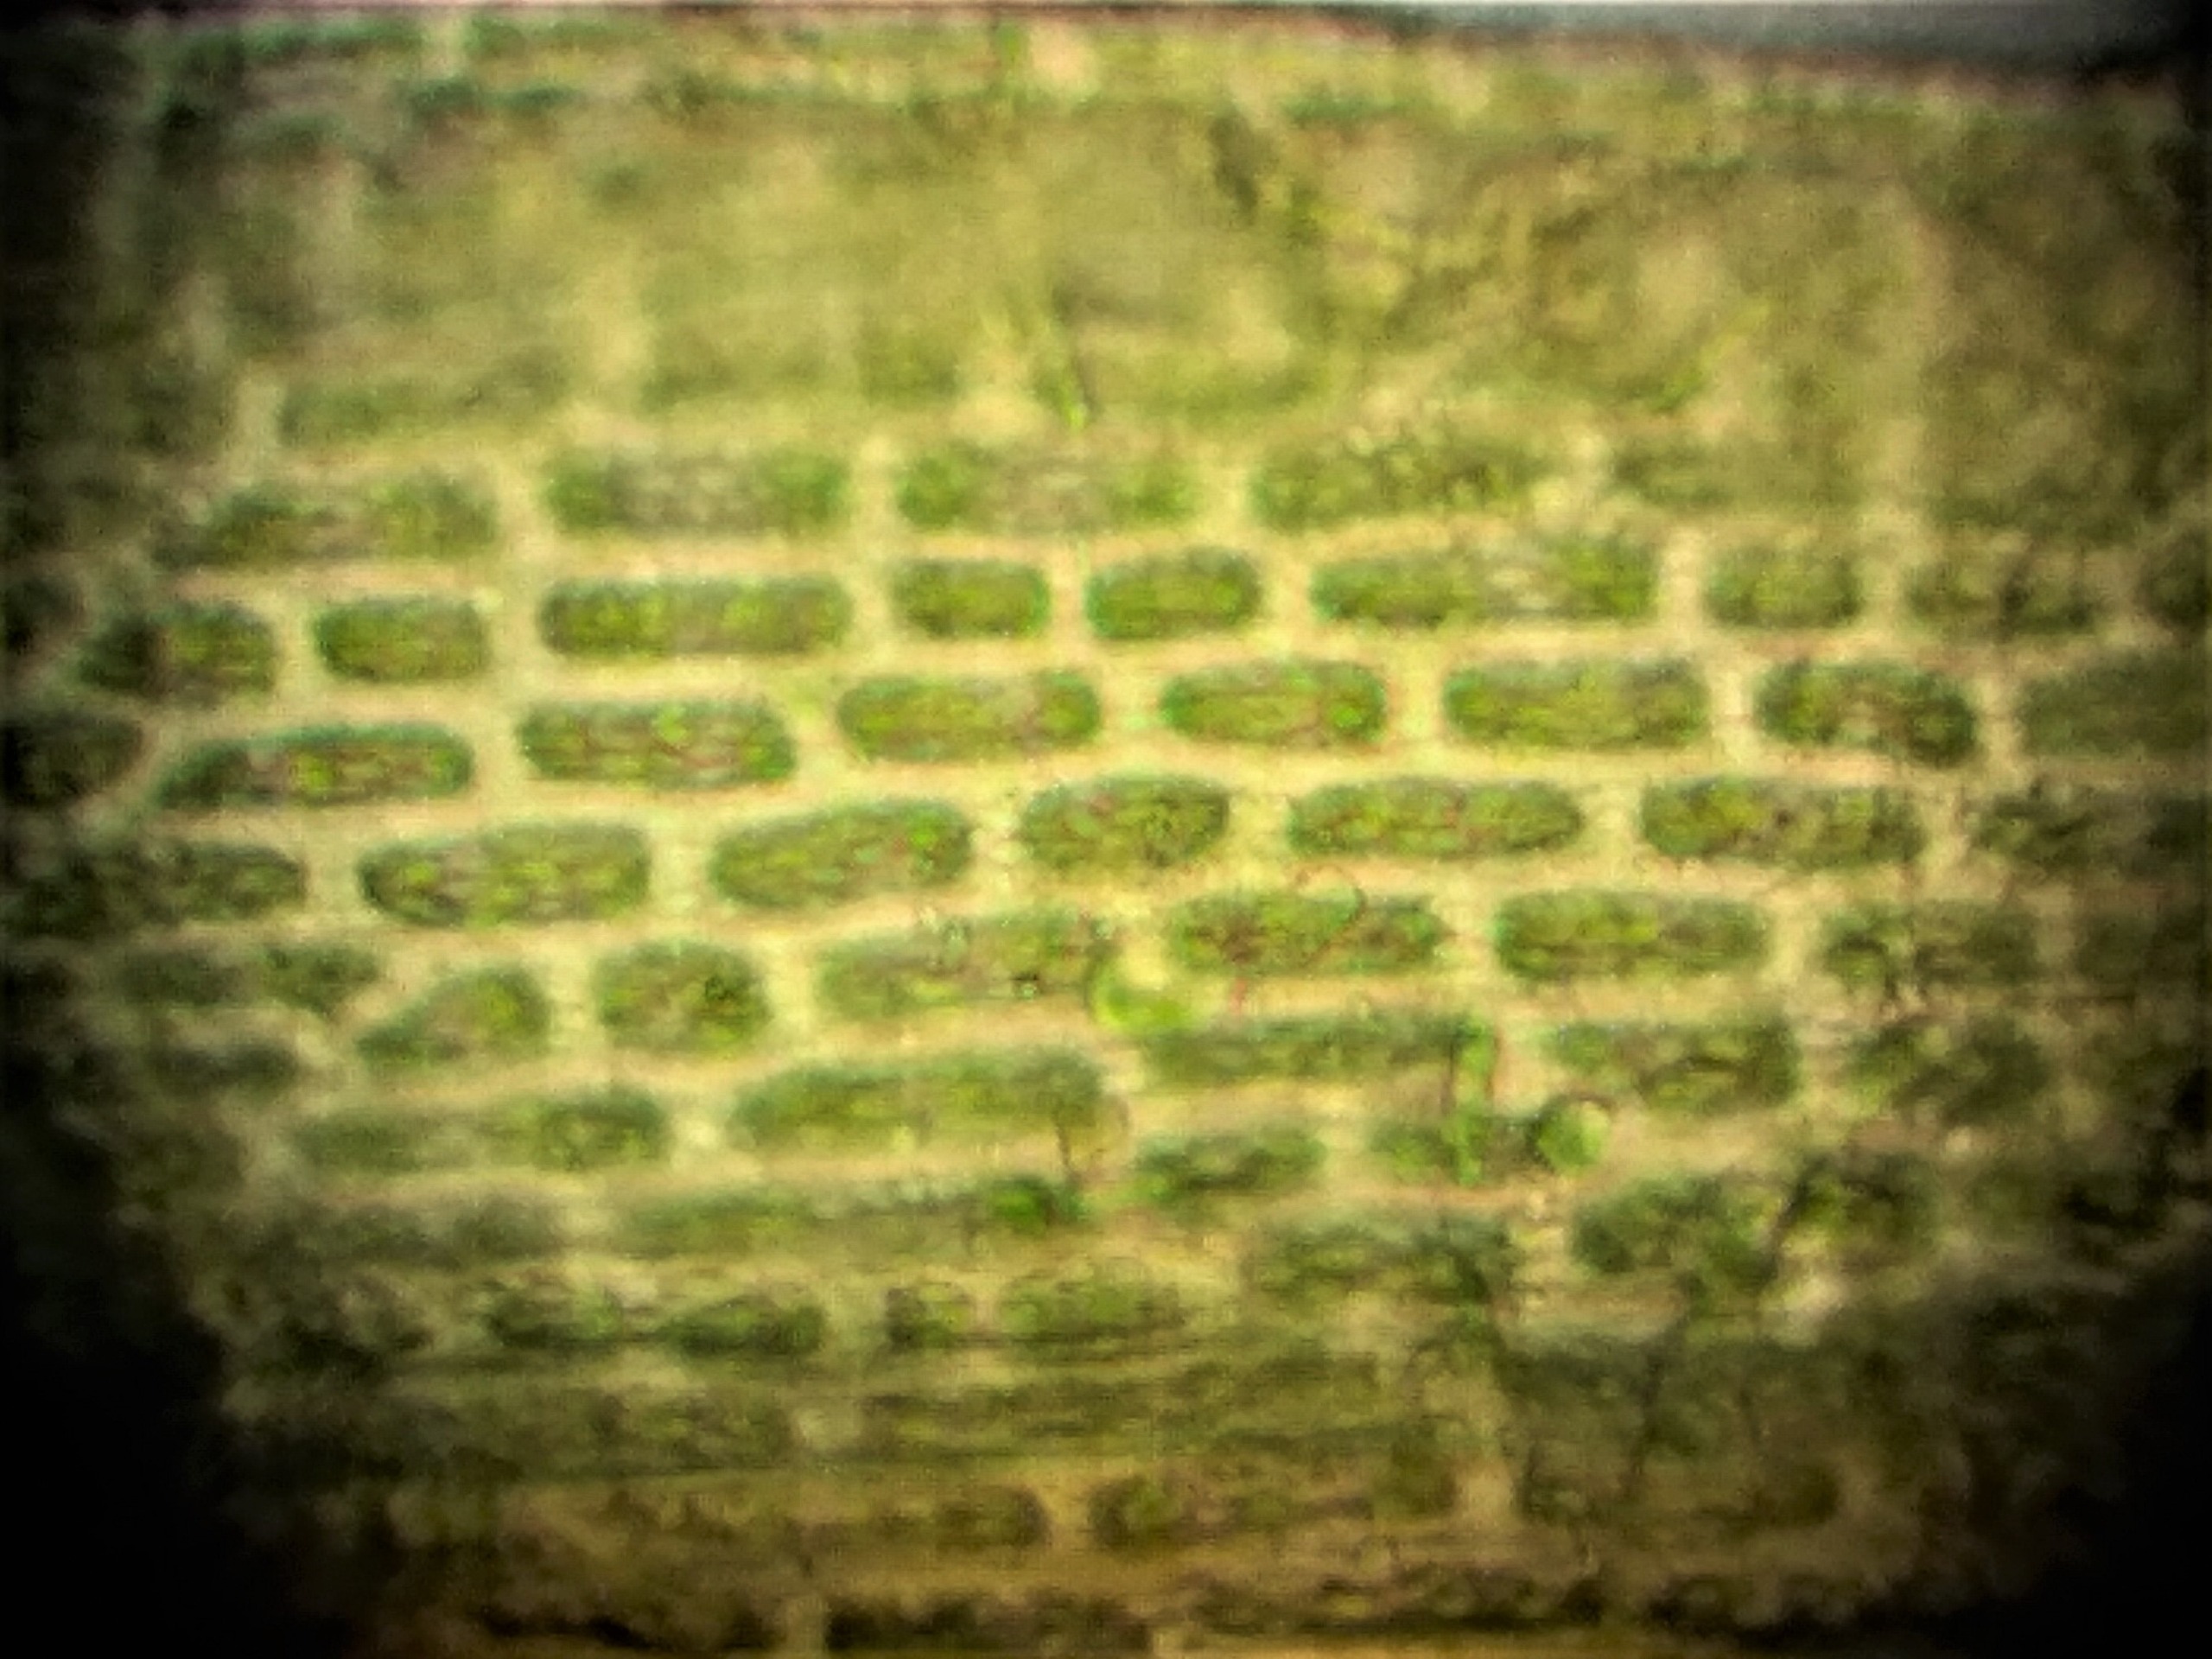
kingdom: Plantae
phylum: Bryophyta
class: Bryopsida
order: Dicranales
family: Amphidiaceae
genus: Amphidium
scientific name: Amphidium mougeotii
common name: Skør pudemos
